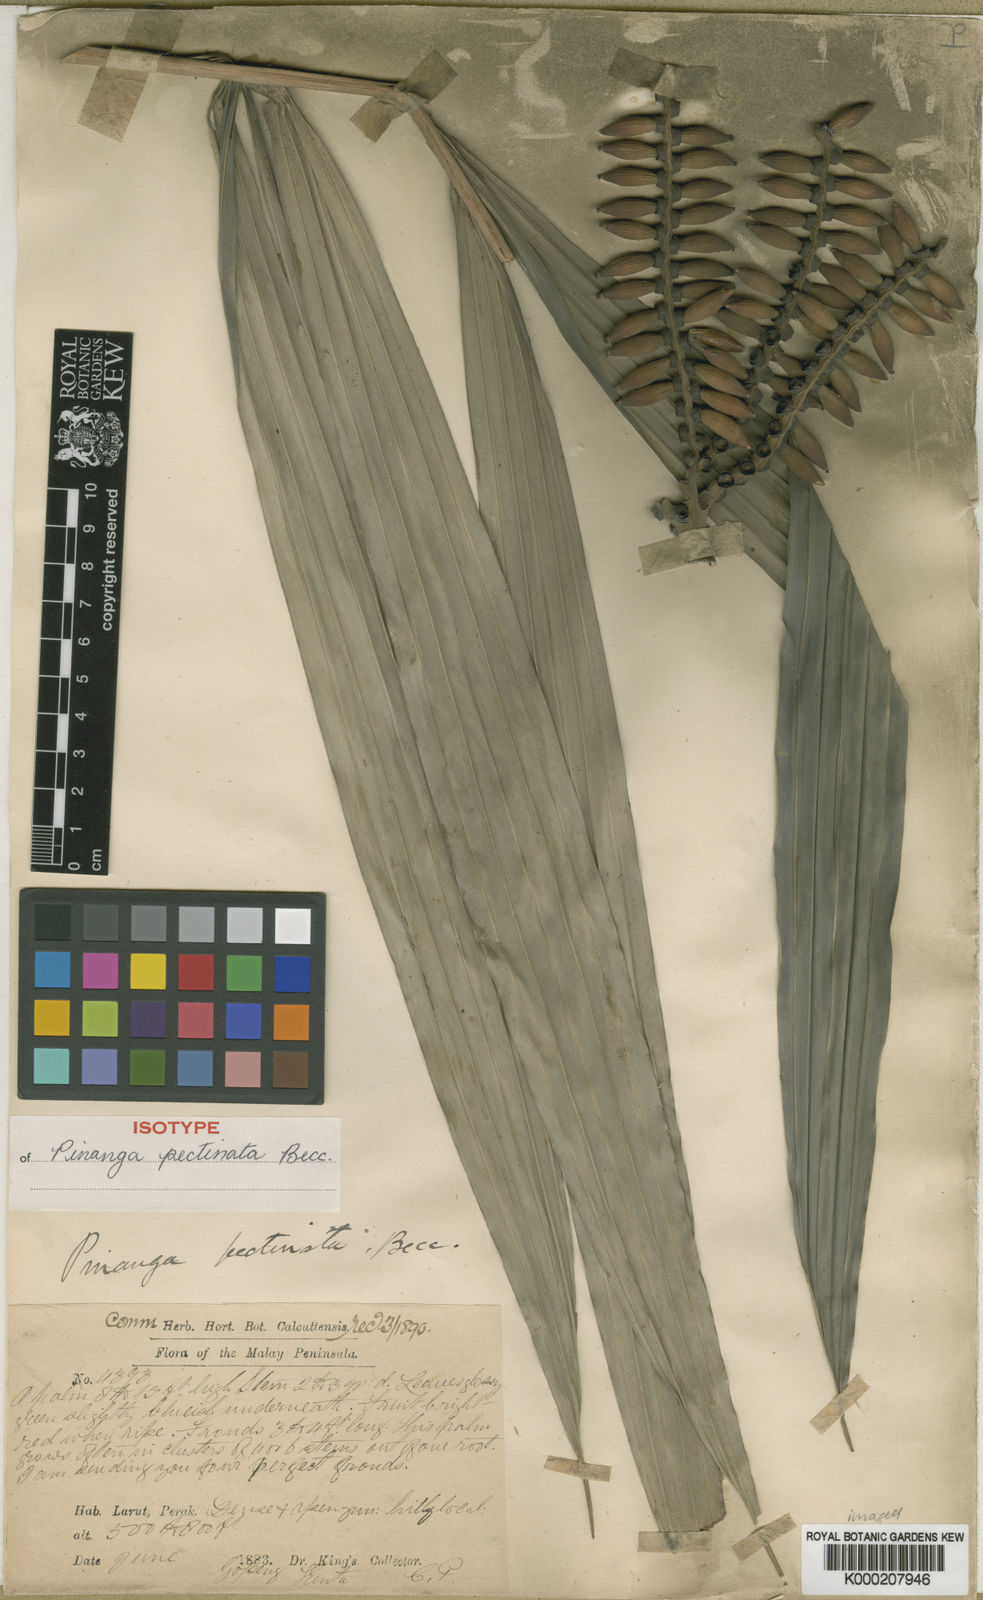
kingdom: Plantae
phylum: Tracheophyta
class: Liliopsida
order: Arecales
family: Arecaceae
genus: Pinanga
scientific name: Pinanga pectinata
